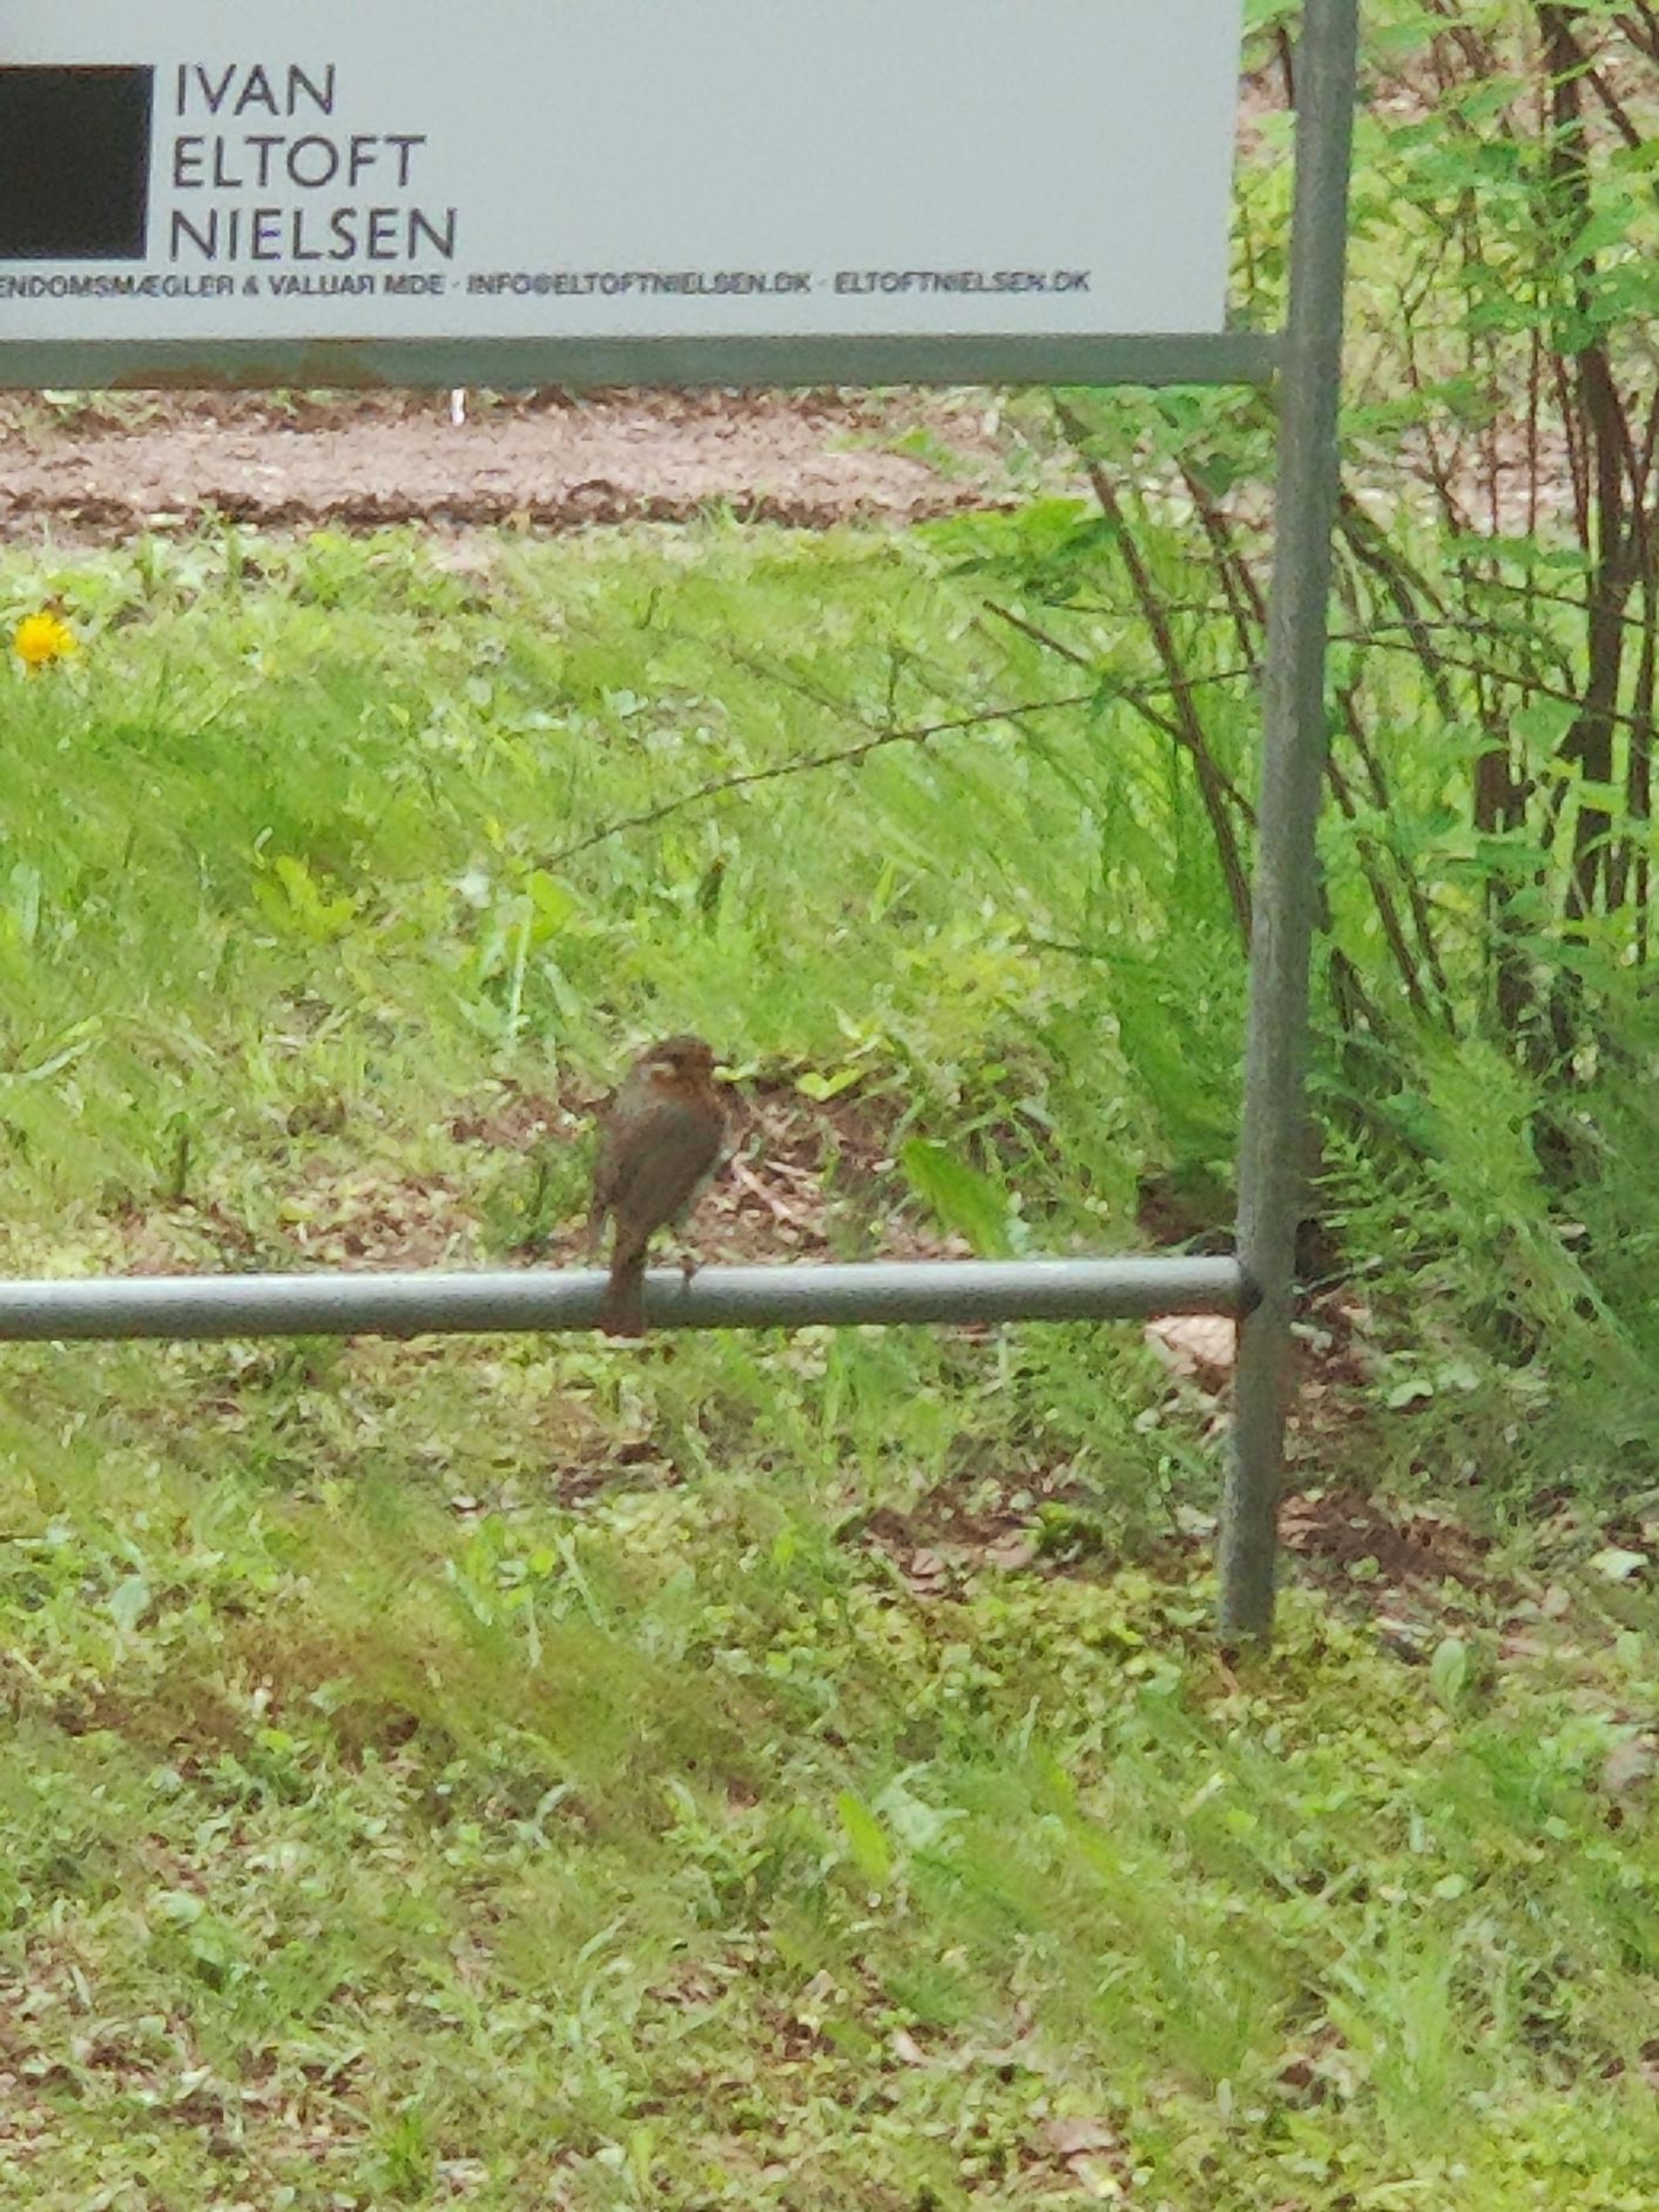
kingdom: Animalia
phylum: Chordata
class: Aves
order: Passeriformes
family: Muscicapidae
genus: Erithacus
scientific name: Erithacus rubecula
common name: Rødhals/rødkælk
